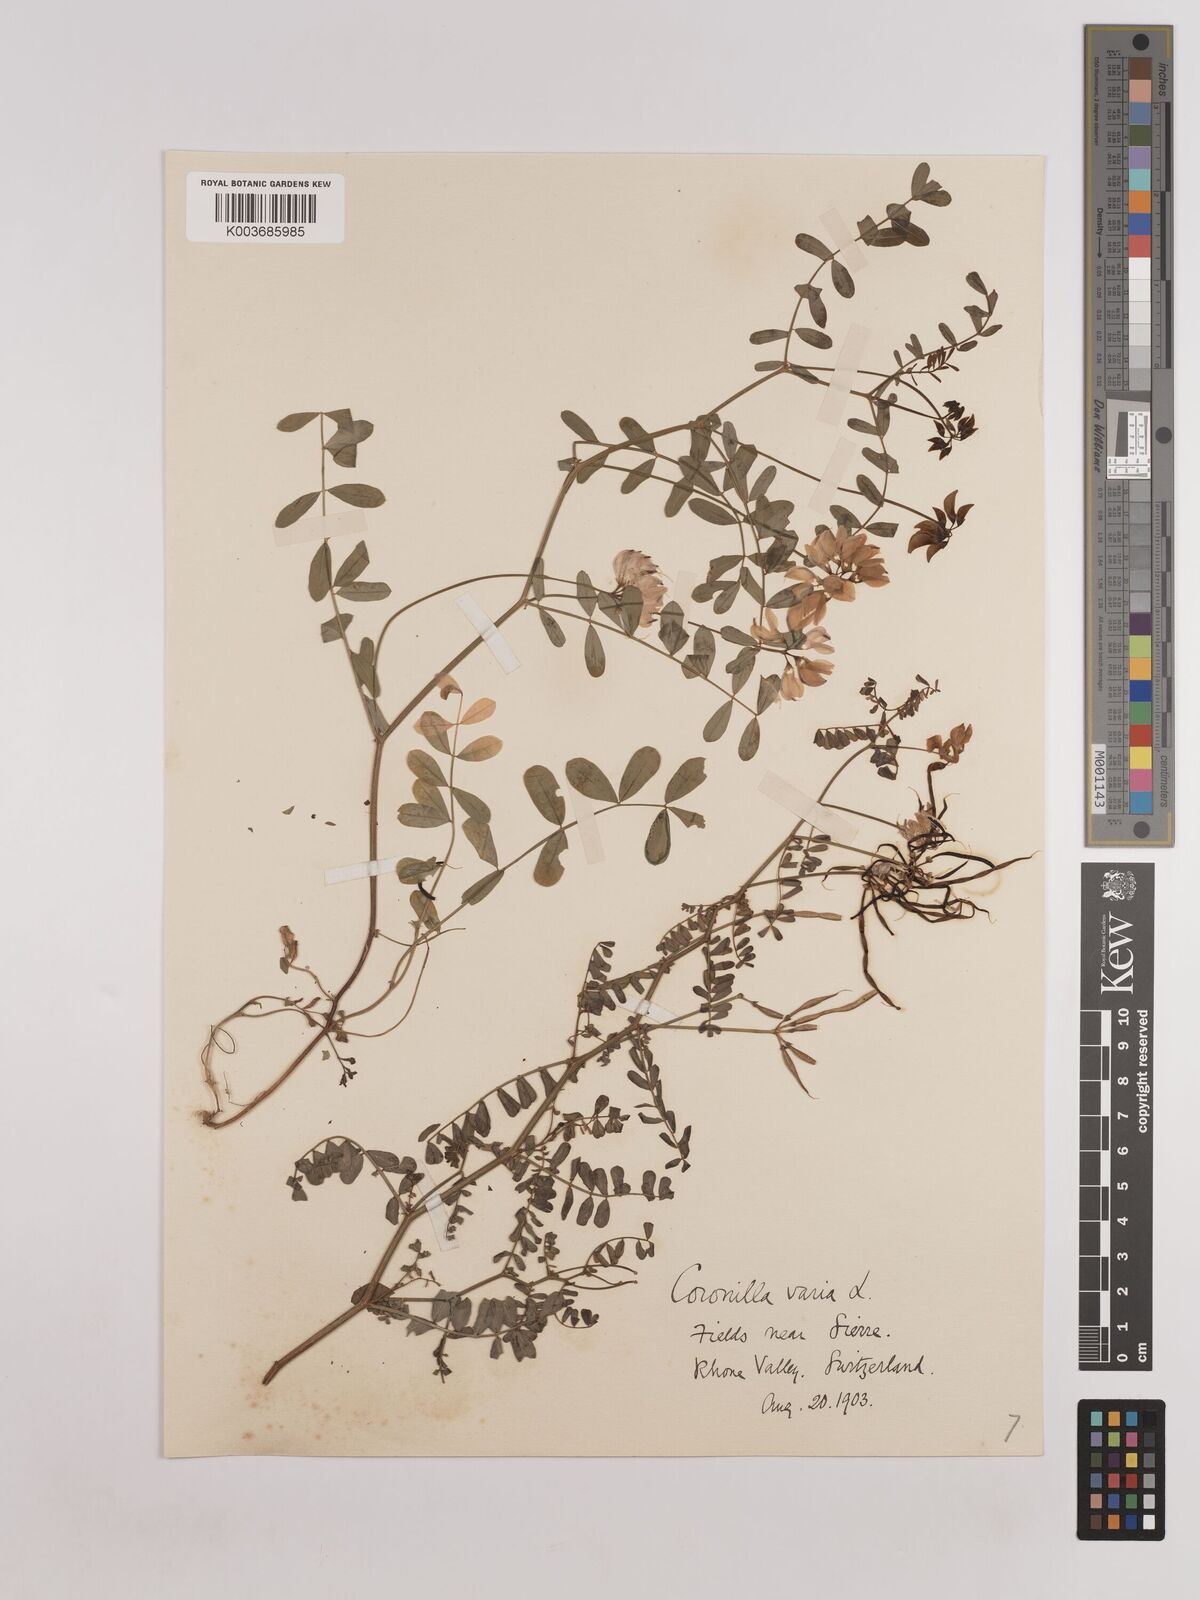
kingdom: Plantae
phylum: Tracheophyta
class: Magnoliopsida
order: Fabales
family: Fabaceae
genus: Coronilla
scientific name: Coronilla varia
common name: Crownvetch
